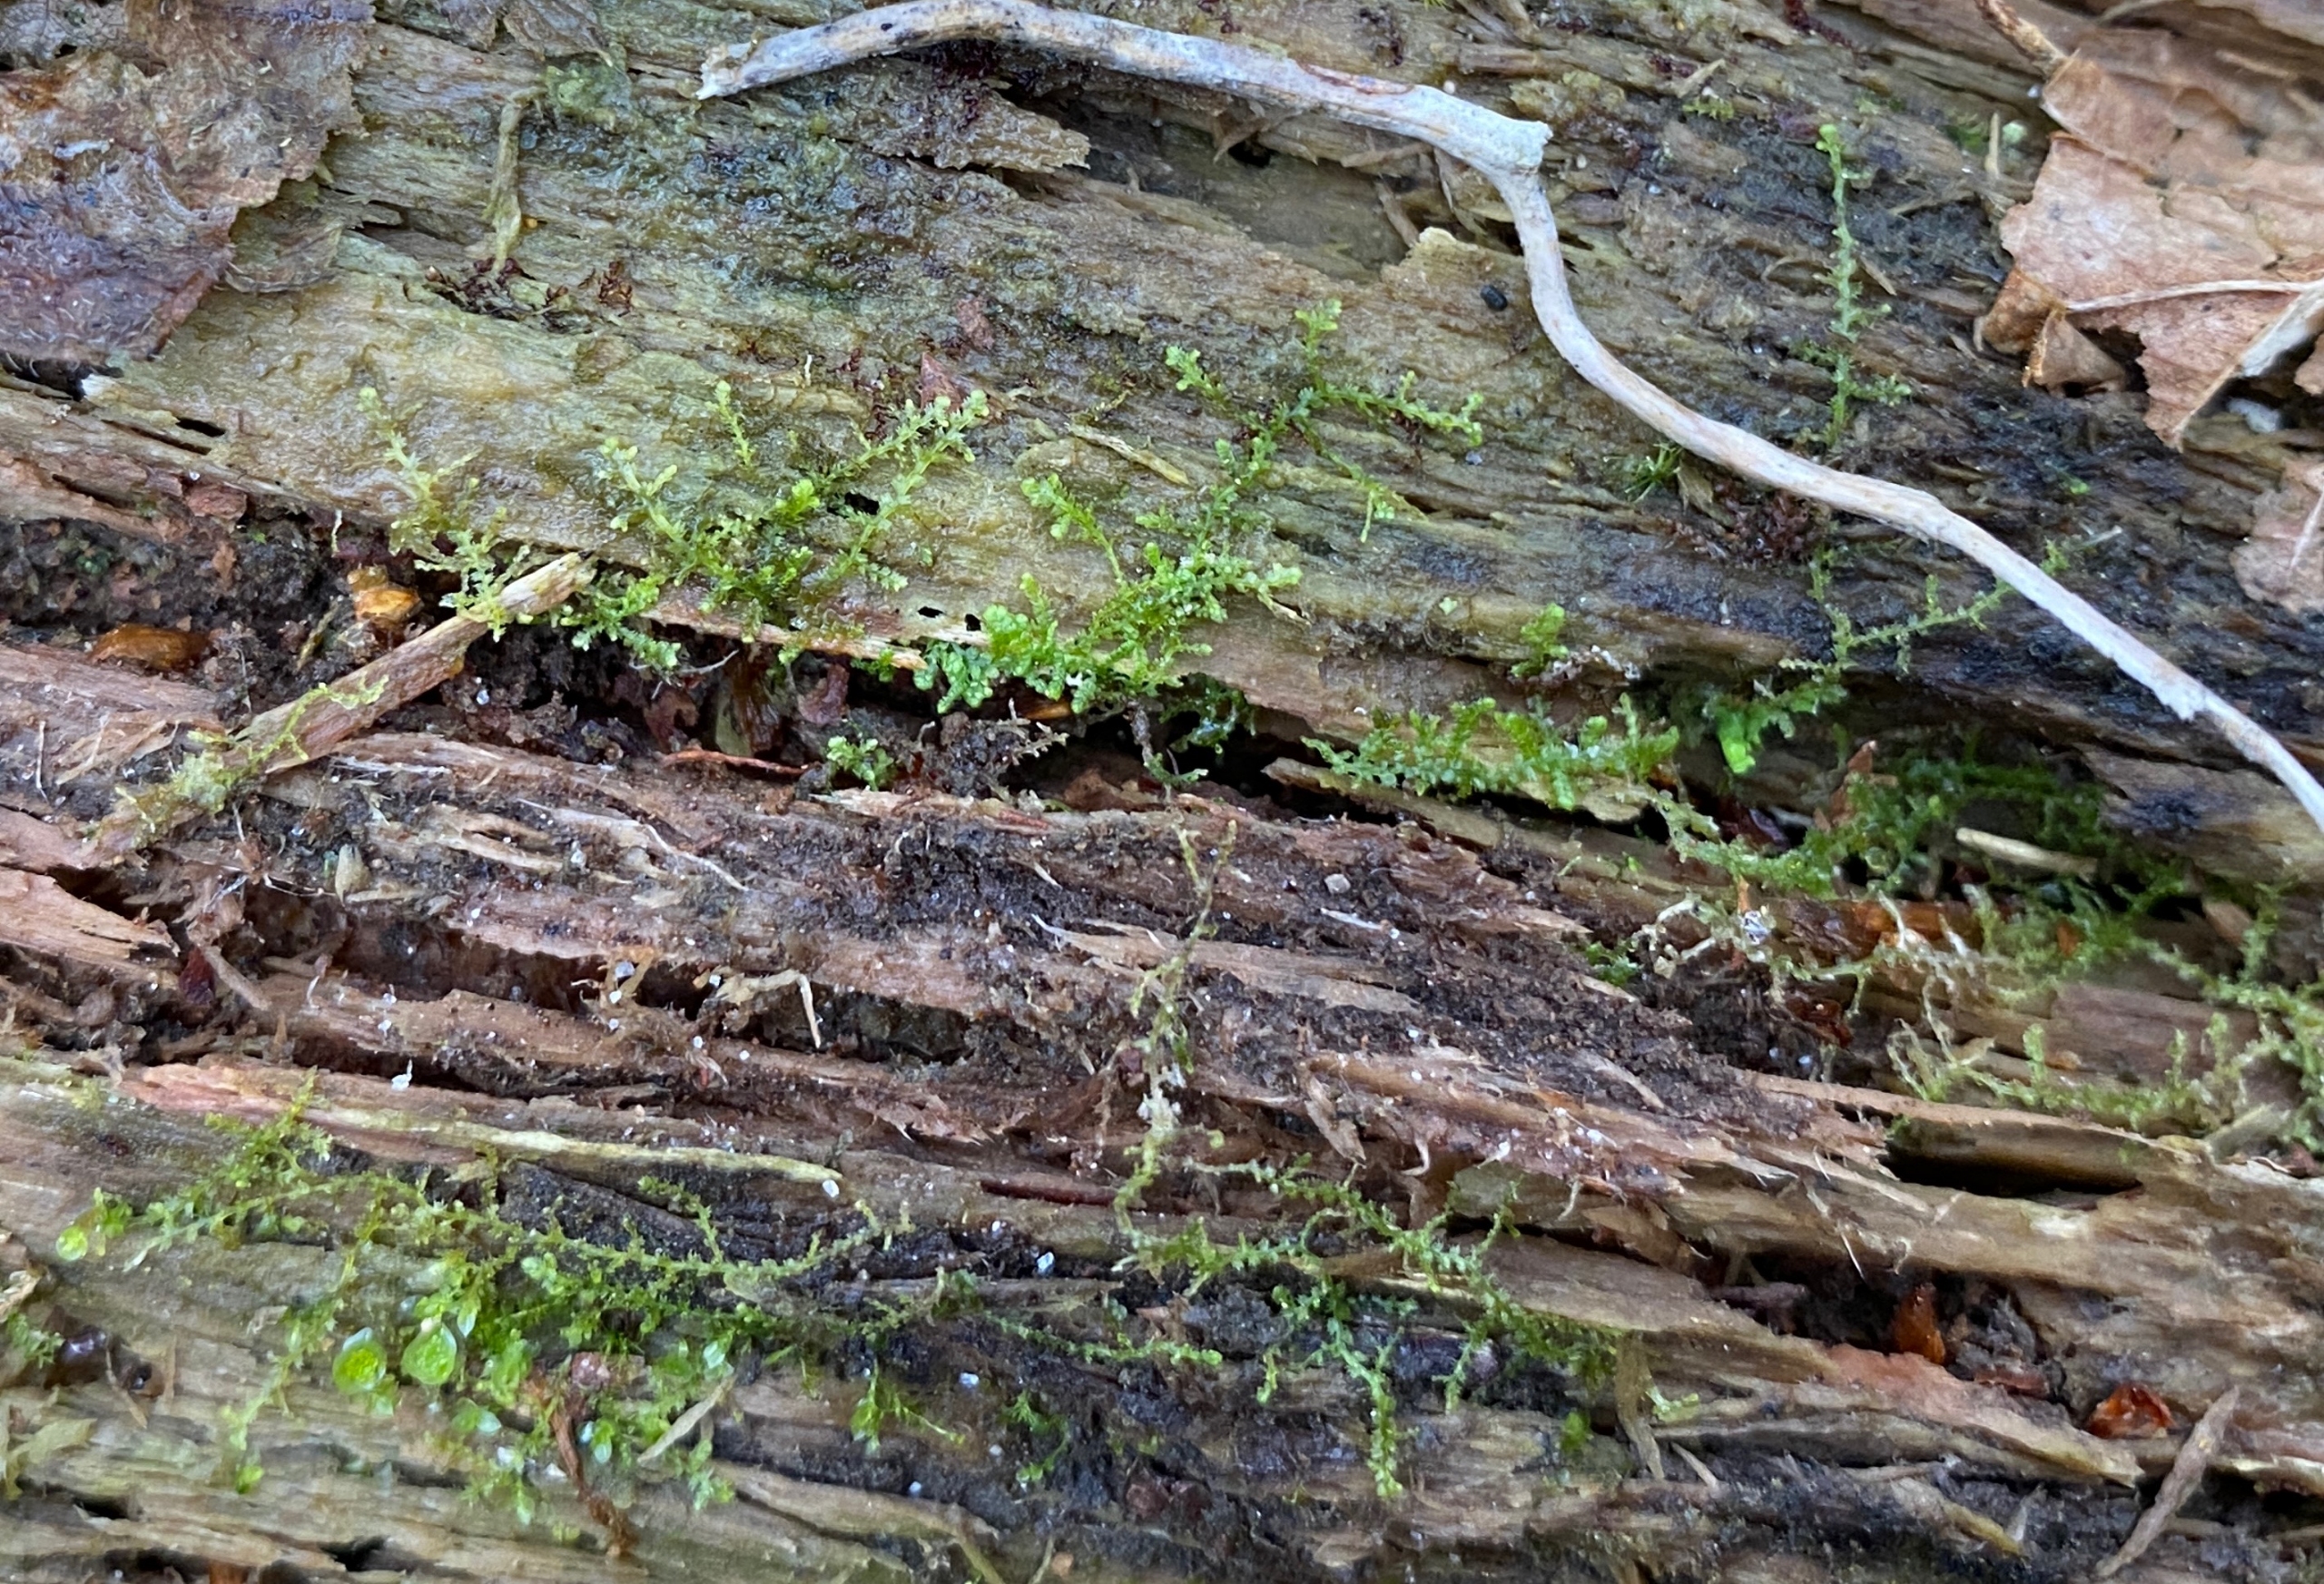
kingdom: Plantae
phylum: Marchantiophyta
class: Jungermanniopsida
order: Jungermanniales
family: Lepidoziaceae
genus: Lepidozia
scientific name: Lepidozia reptans
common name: Krybende fingermos
